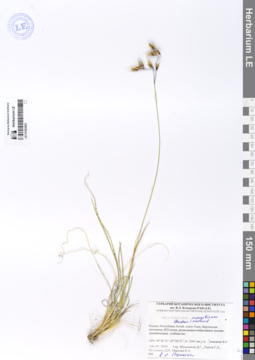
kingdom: Plantae
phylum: Tracheophyta
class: Liliopsida
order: Poales
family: Poaceae
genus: Helictotrichon
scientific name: Helictotrichon mongolicum
